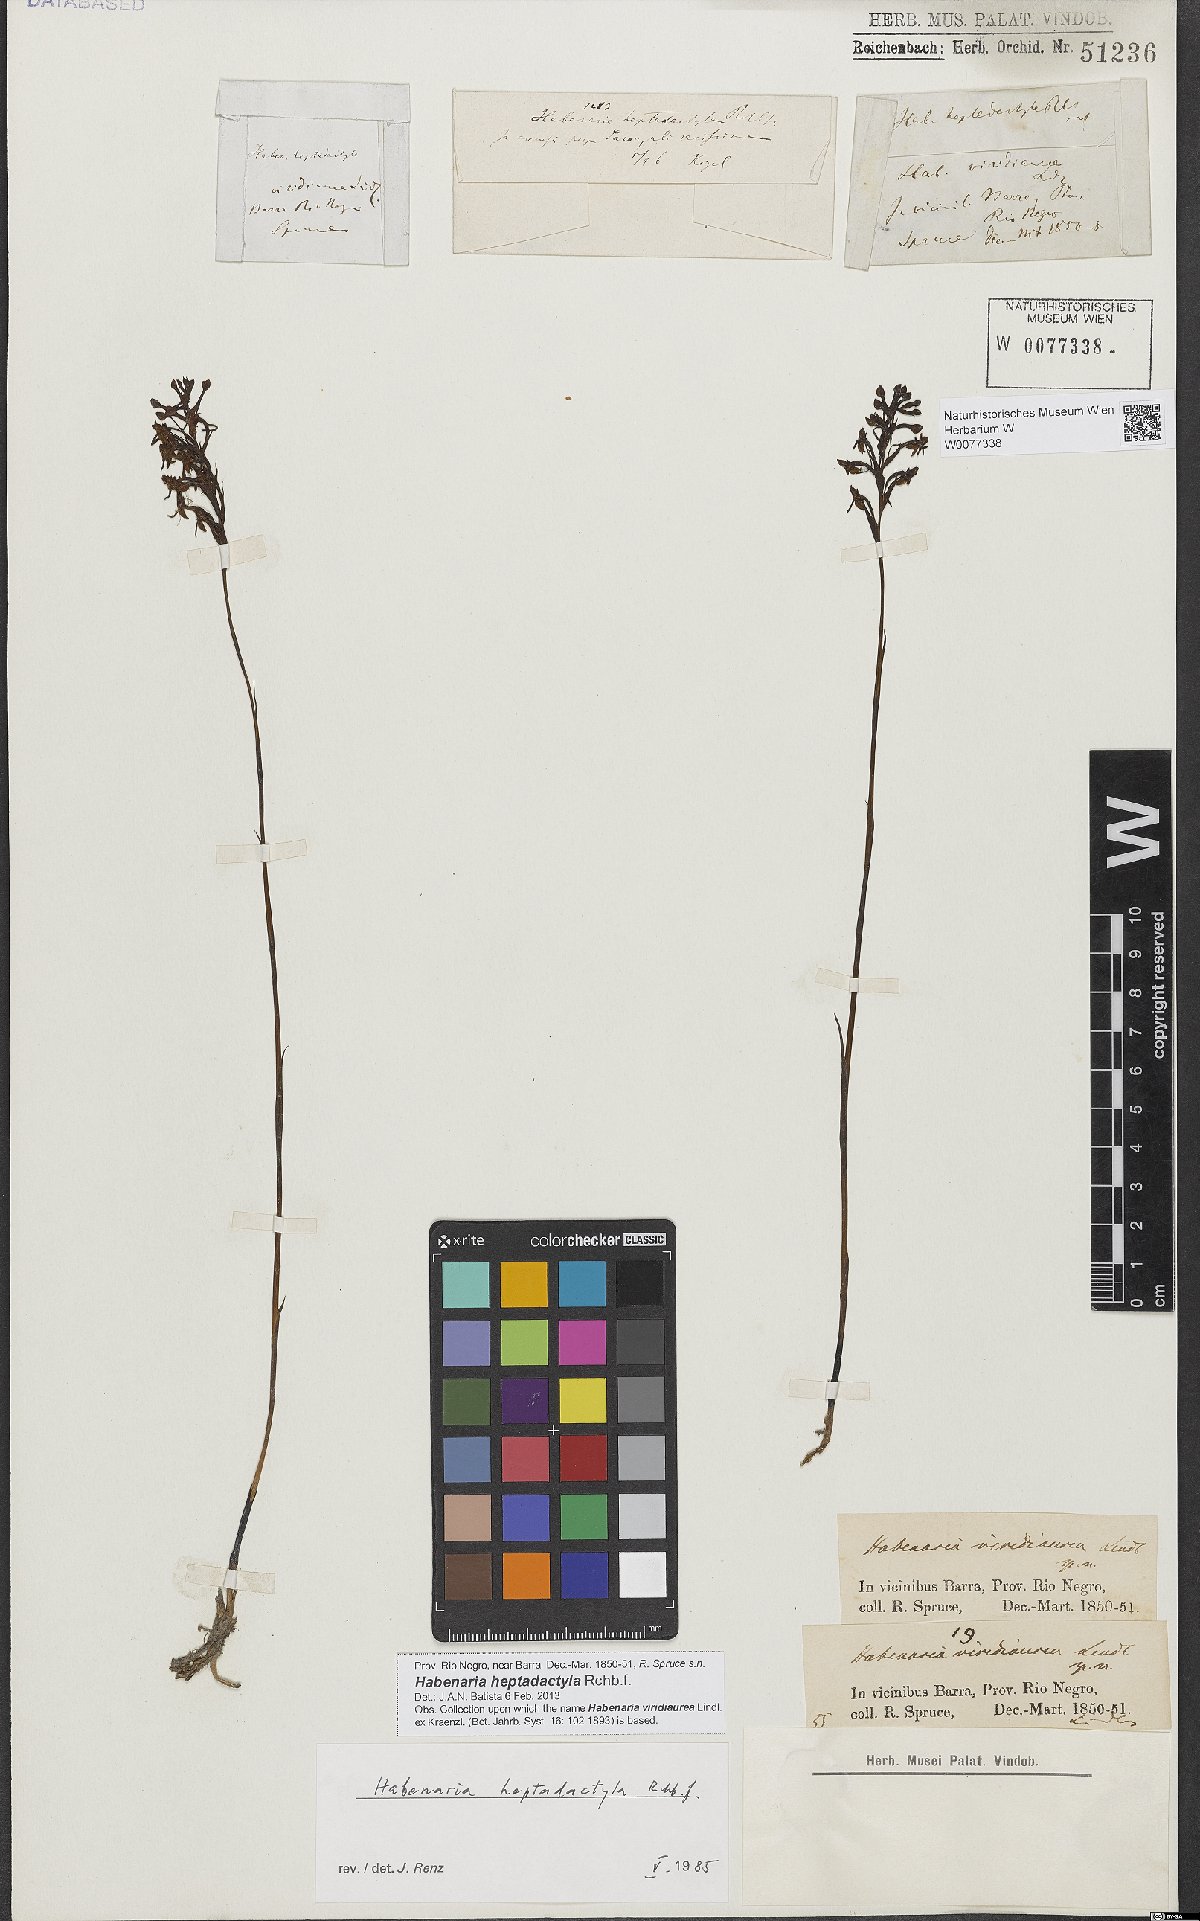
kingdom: Plantae
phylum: Tracheophyta
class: Liliopsida
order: Asparagales
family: Orchidaceae
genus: Habenaria
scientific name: Habenaria heptadactyla
